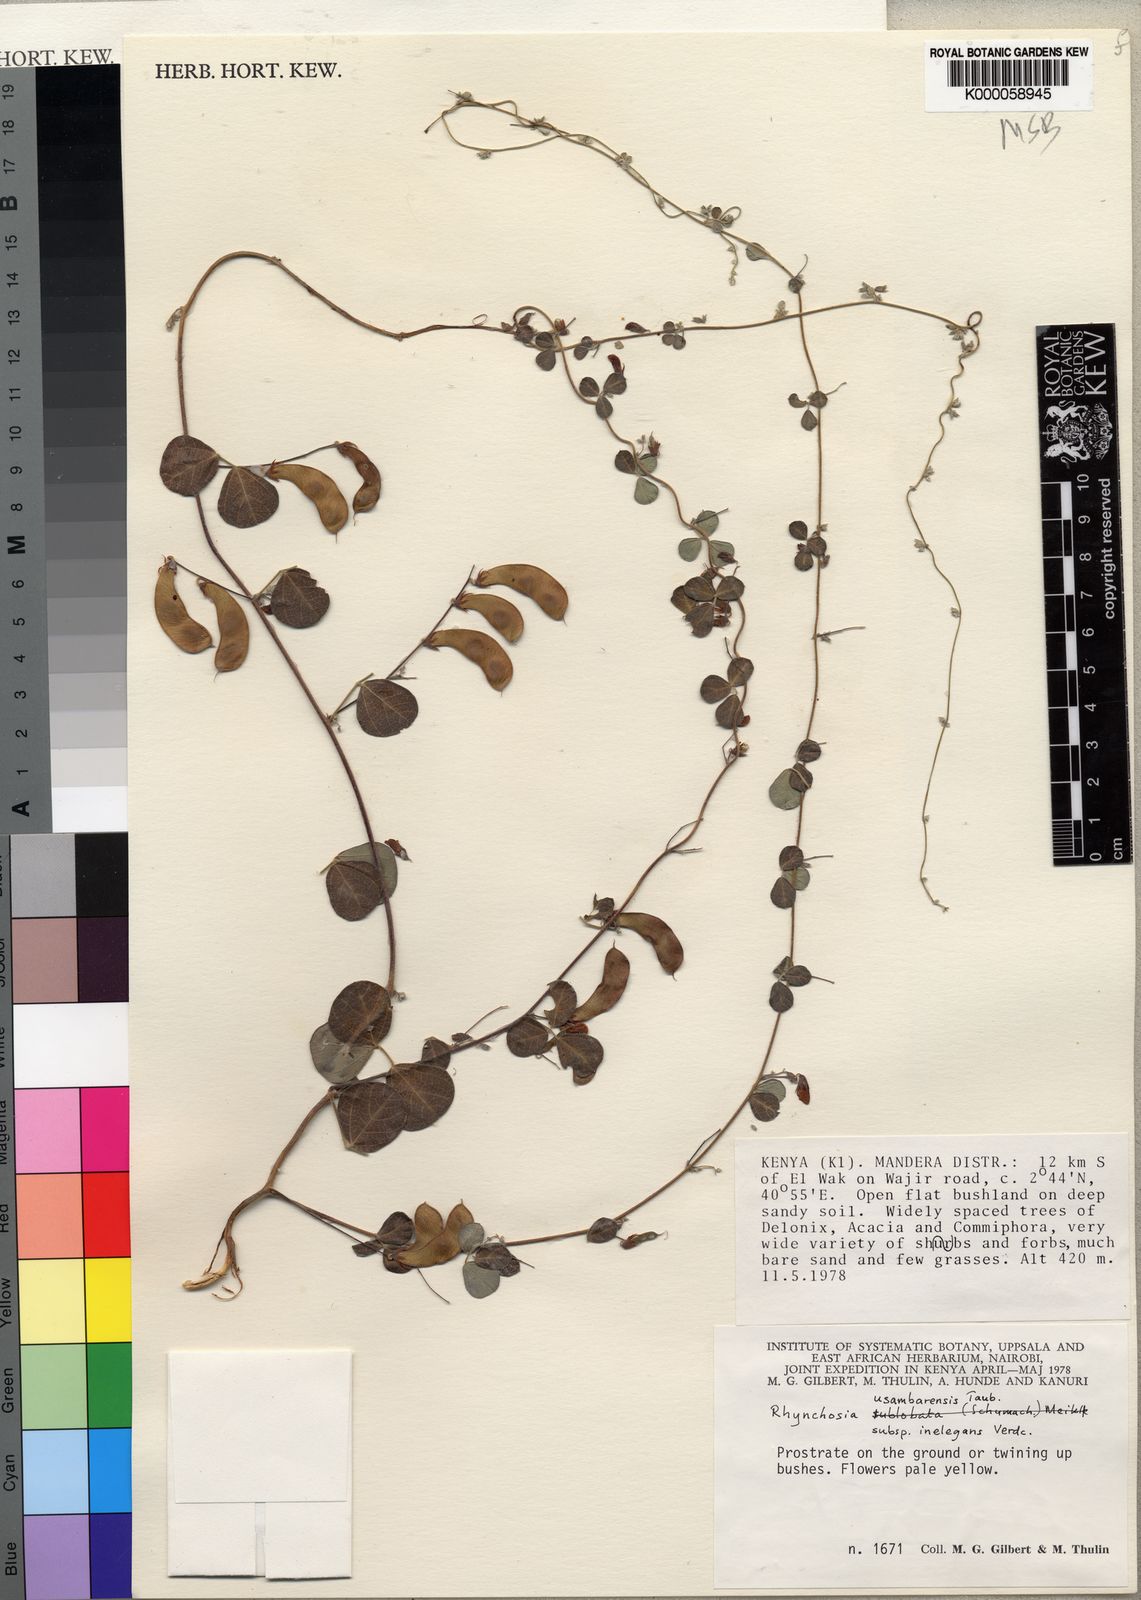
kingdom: Plantae
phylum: Tracheophyta
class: Magnoliopsida
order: Fabales
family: Fabaceae
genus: Rhynchosia
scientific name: Rhynchosia usambarensis
